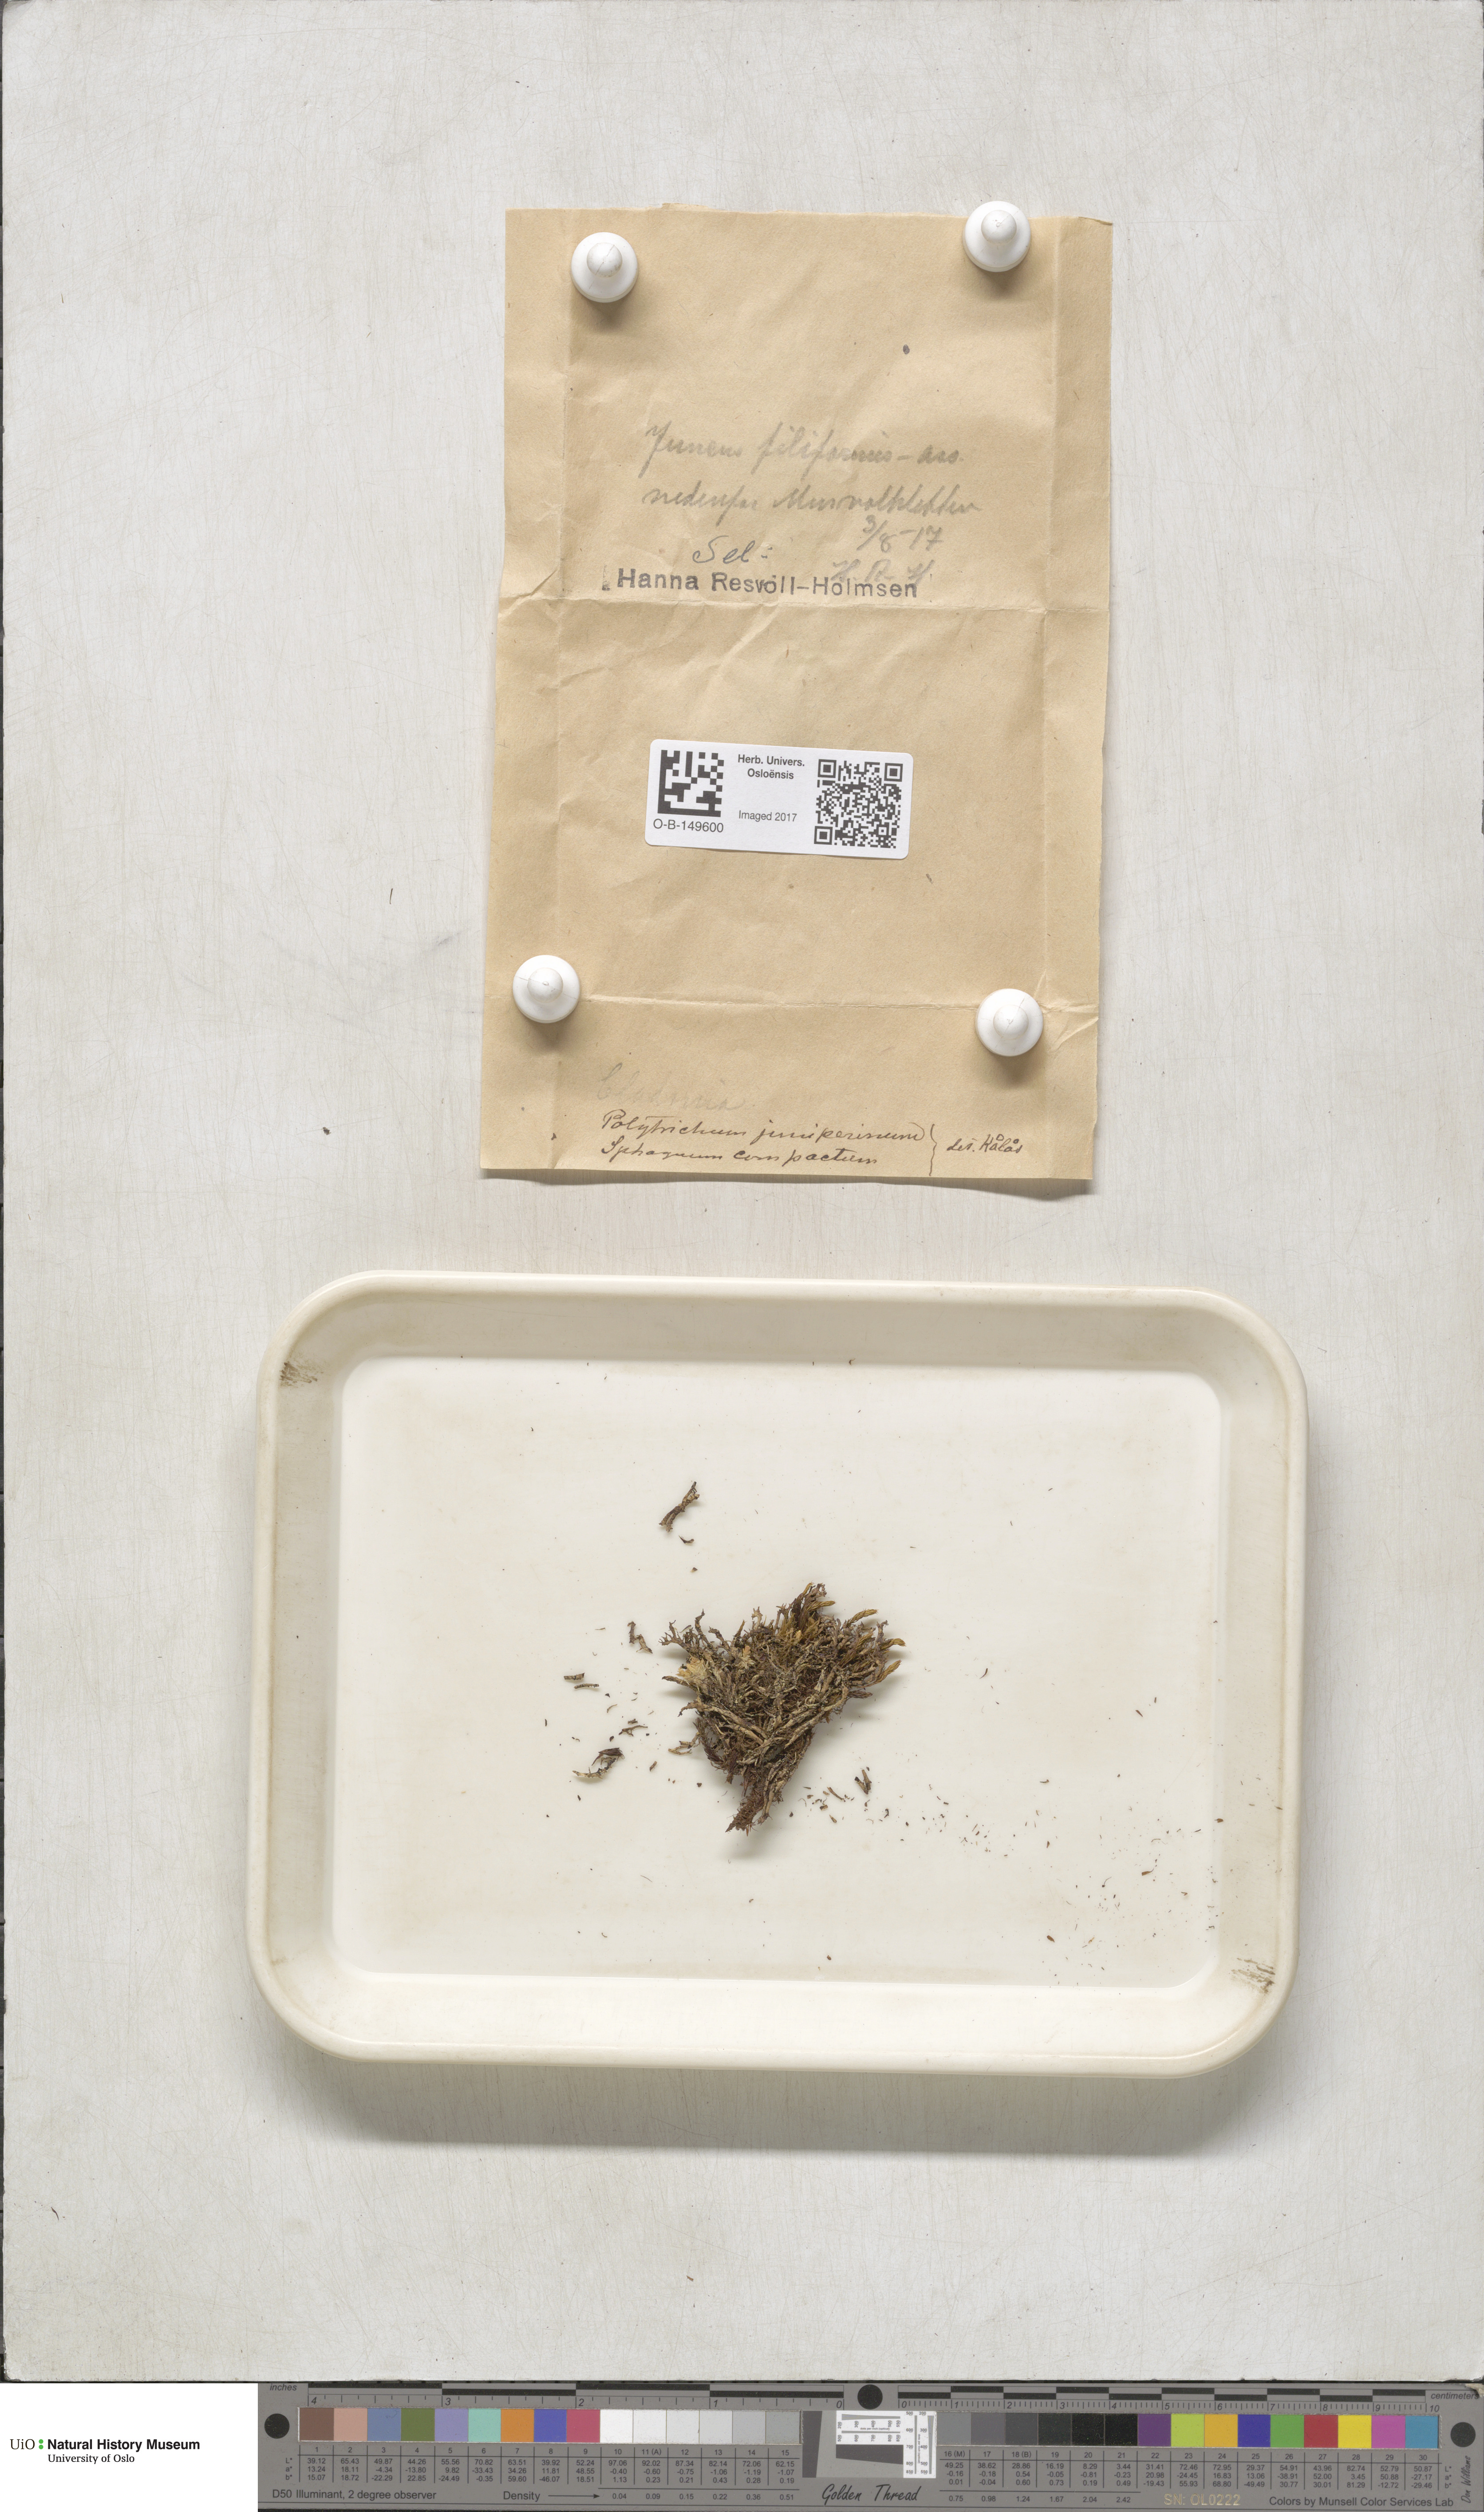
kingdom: Plantae
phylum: Bryophyta
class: Polytrichopsida
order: Polytrichales
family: Polytrichaceae
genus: Polytrichum
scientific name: Polytrichum juniperinum
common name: Juniper haircap moss
